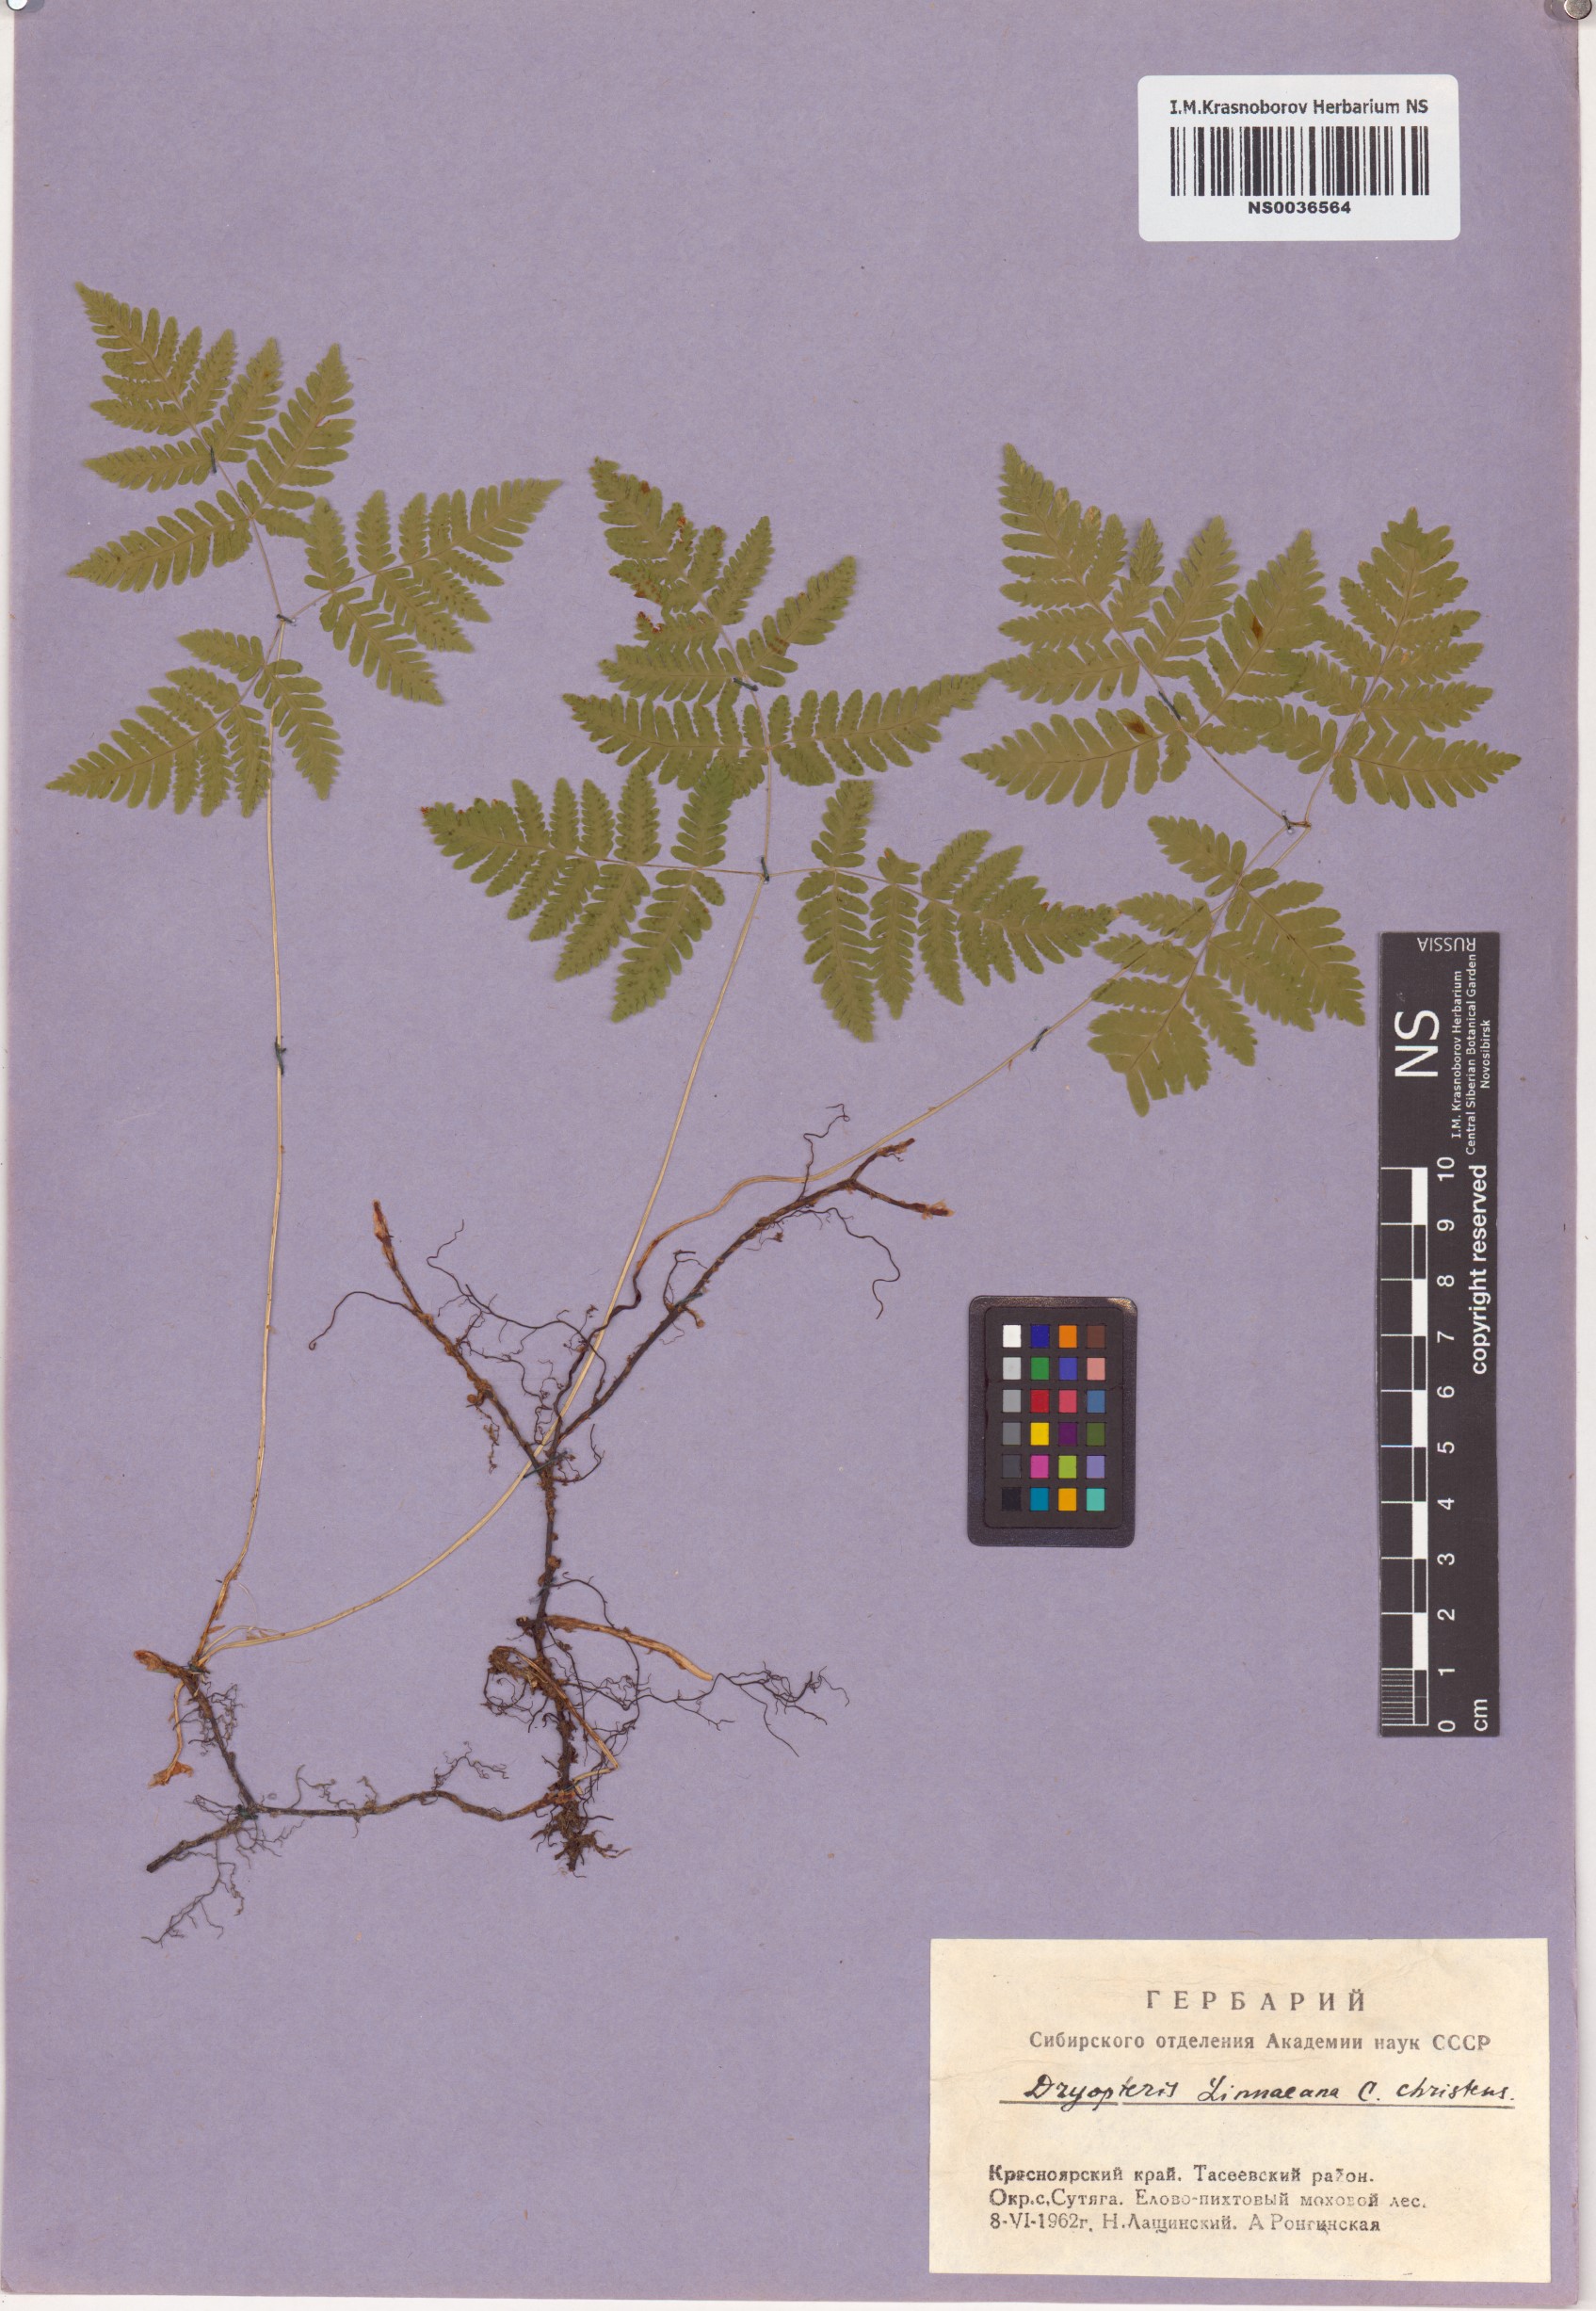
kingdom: Plantae
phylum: Tracheophyta
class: Polypodiopsida
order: Polypodiales
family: Cystopteridaceae
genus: Gymnocarpium
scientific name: Gymnocarpium dryopteris
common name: Oak fern
